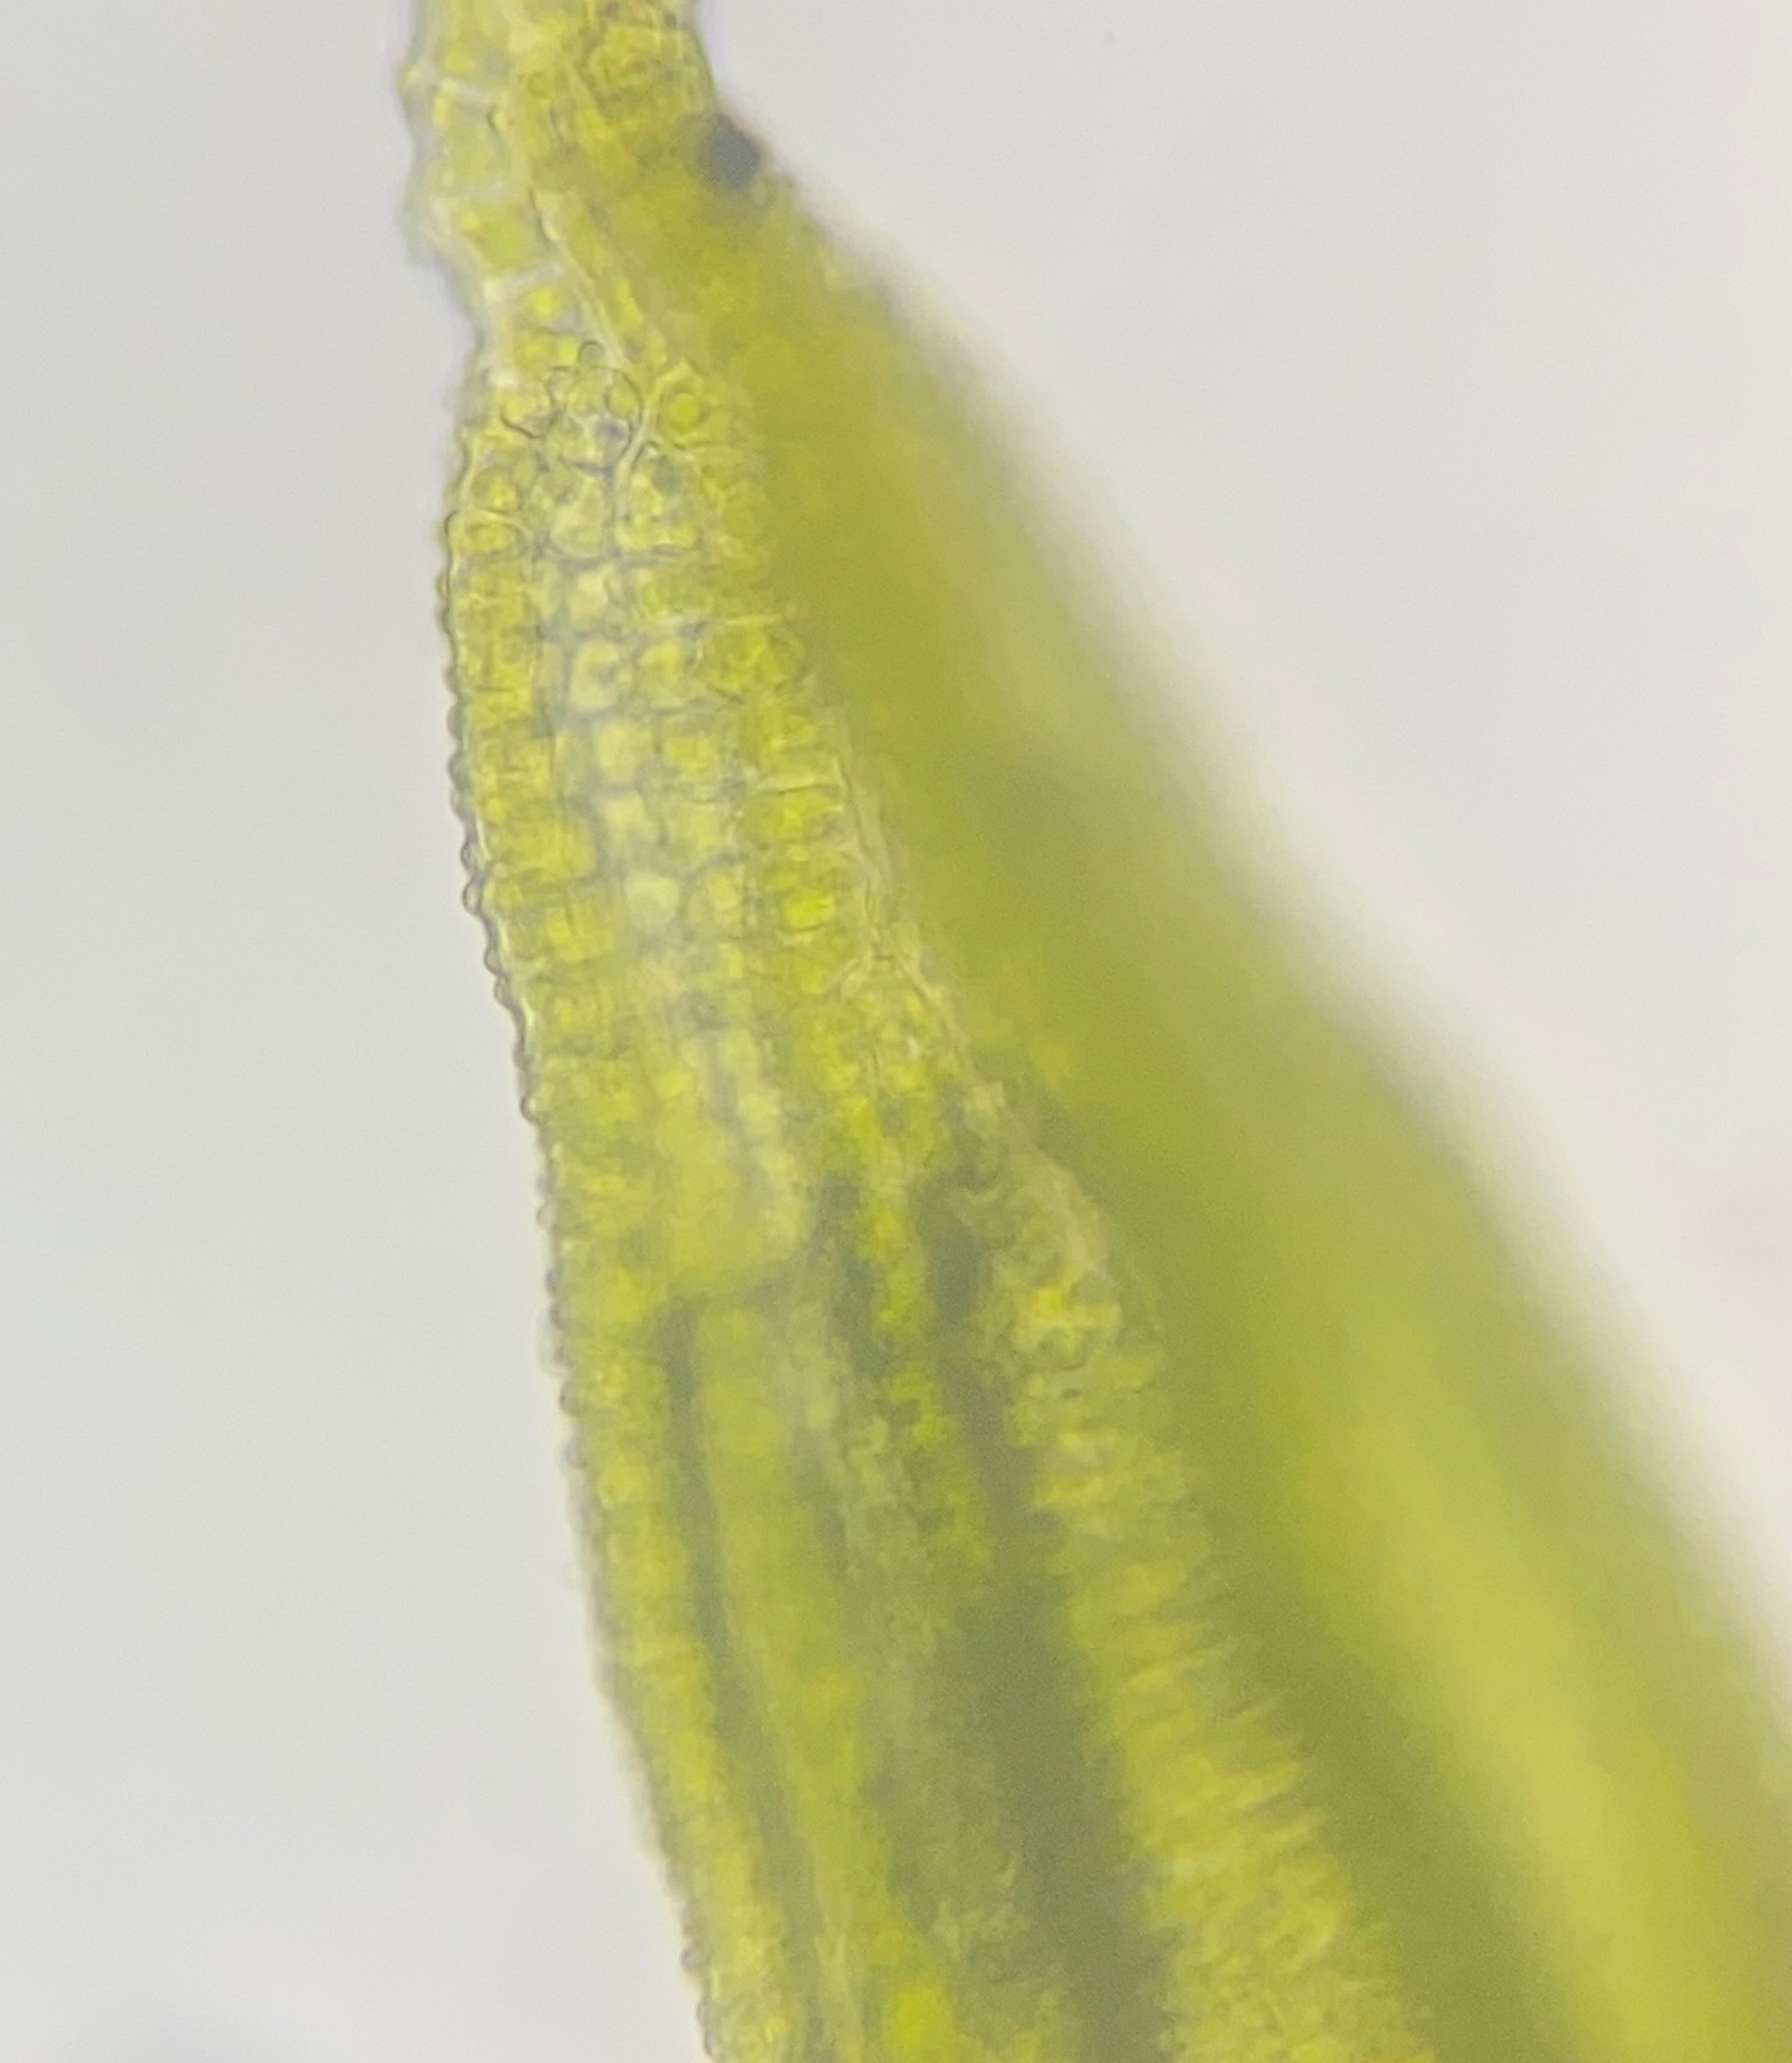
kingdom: Plantae
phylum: Bryophyta
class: Bryopsida
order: Pottiales
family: Pottiaceae
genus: Pseudocrossidium
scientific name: Pseudocrossidium hornschuchianum
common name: Spids rullerand
